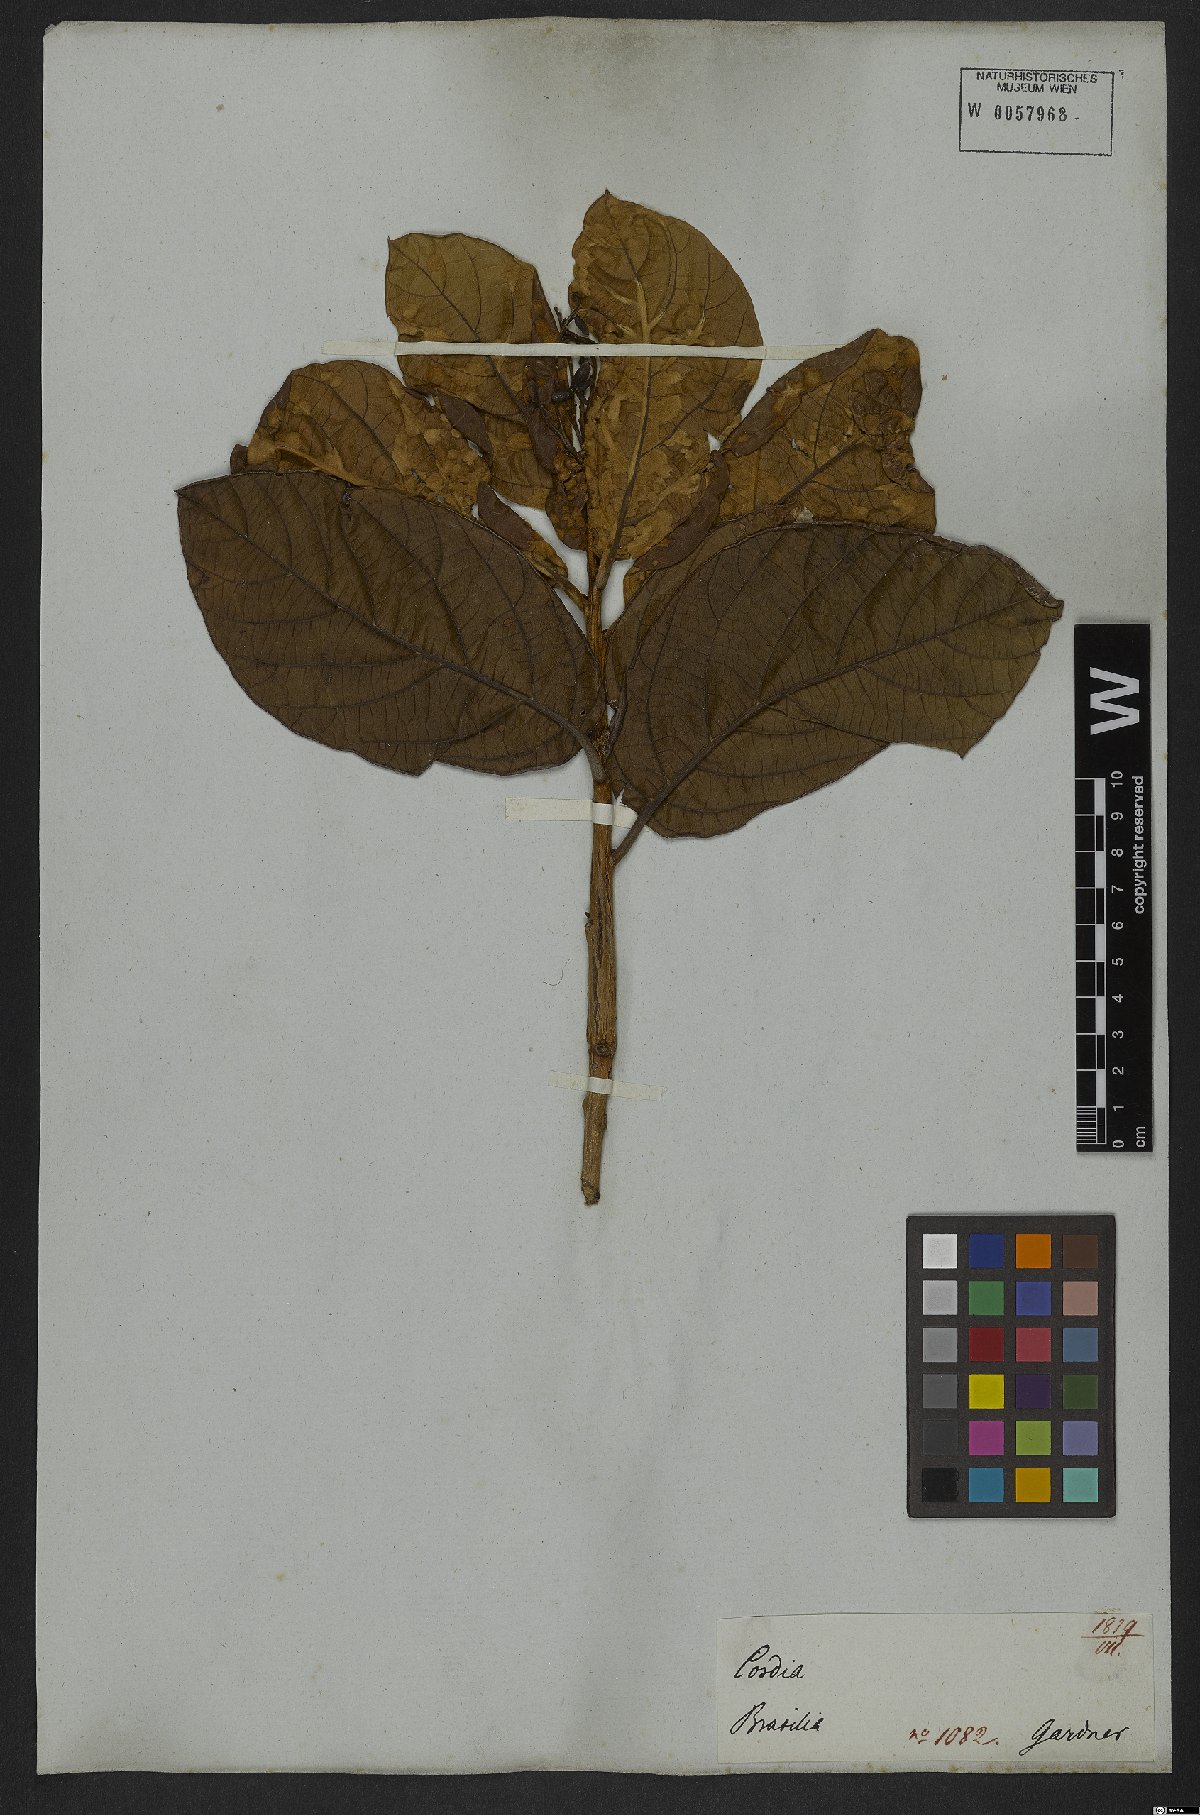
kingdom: Plantae
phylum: Tracheophyta
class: Magnoliopsida
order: Boraginales
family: Cordiaceae
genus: Cordia
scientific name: Cordia insignis
